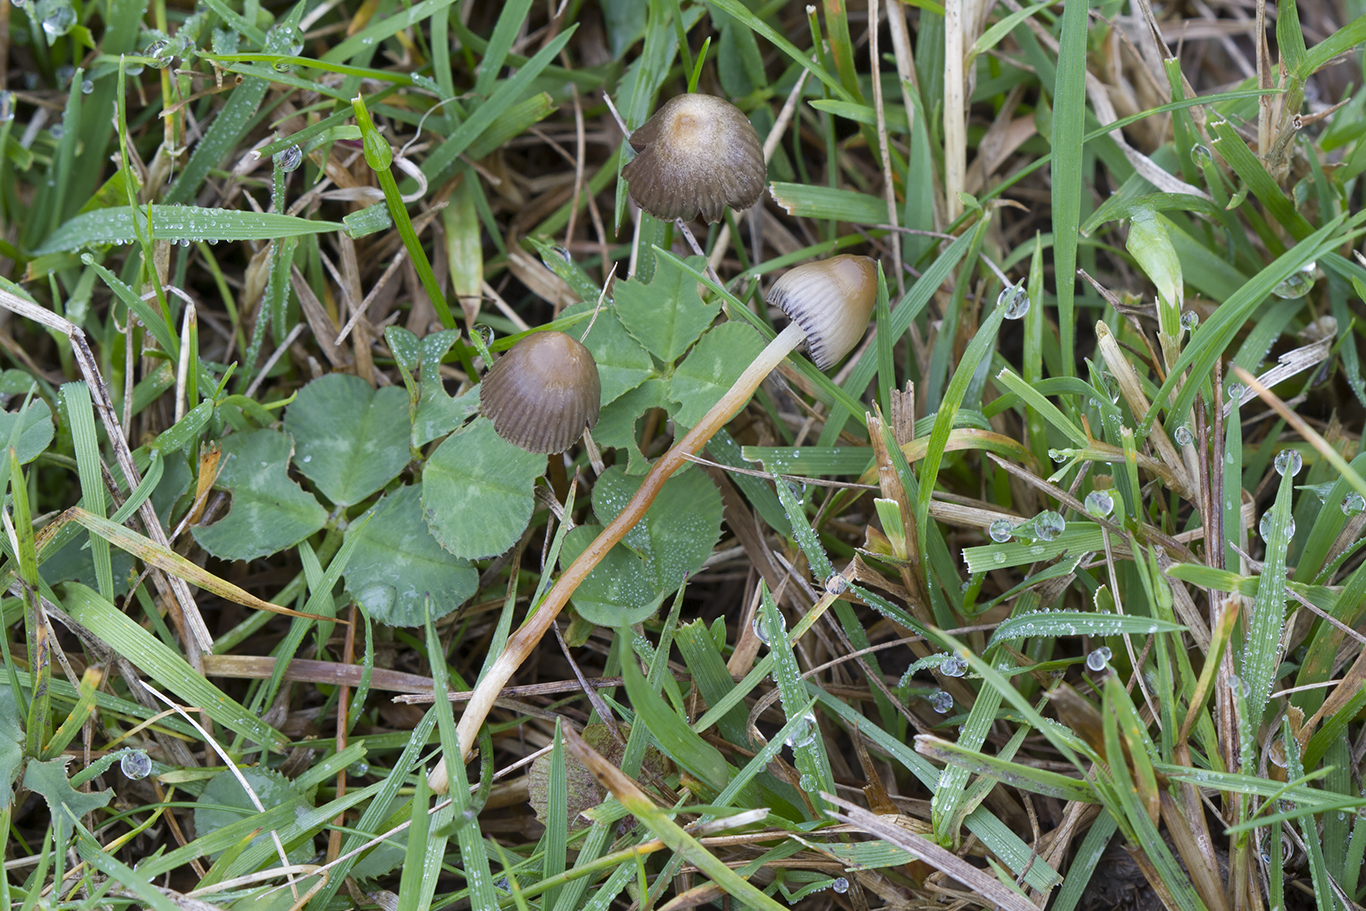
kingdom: Fungi
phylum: Basidiomycota
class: Agaricomycetes
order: Agaricales
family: Hymenogastraceae
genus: Psilocybe
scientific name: Psilocybe semilanceata
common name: spids nøgenhat
